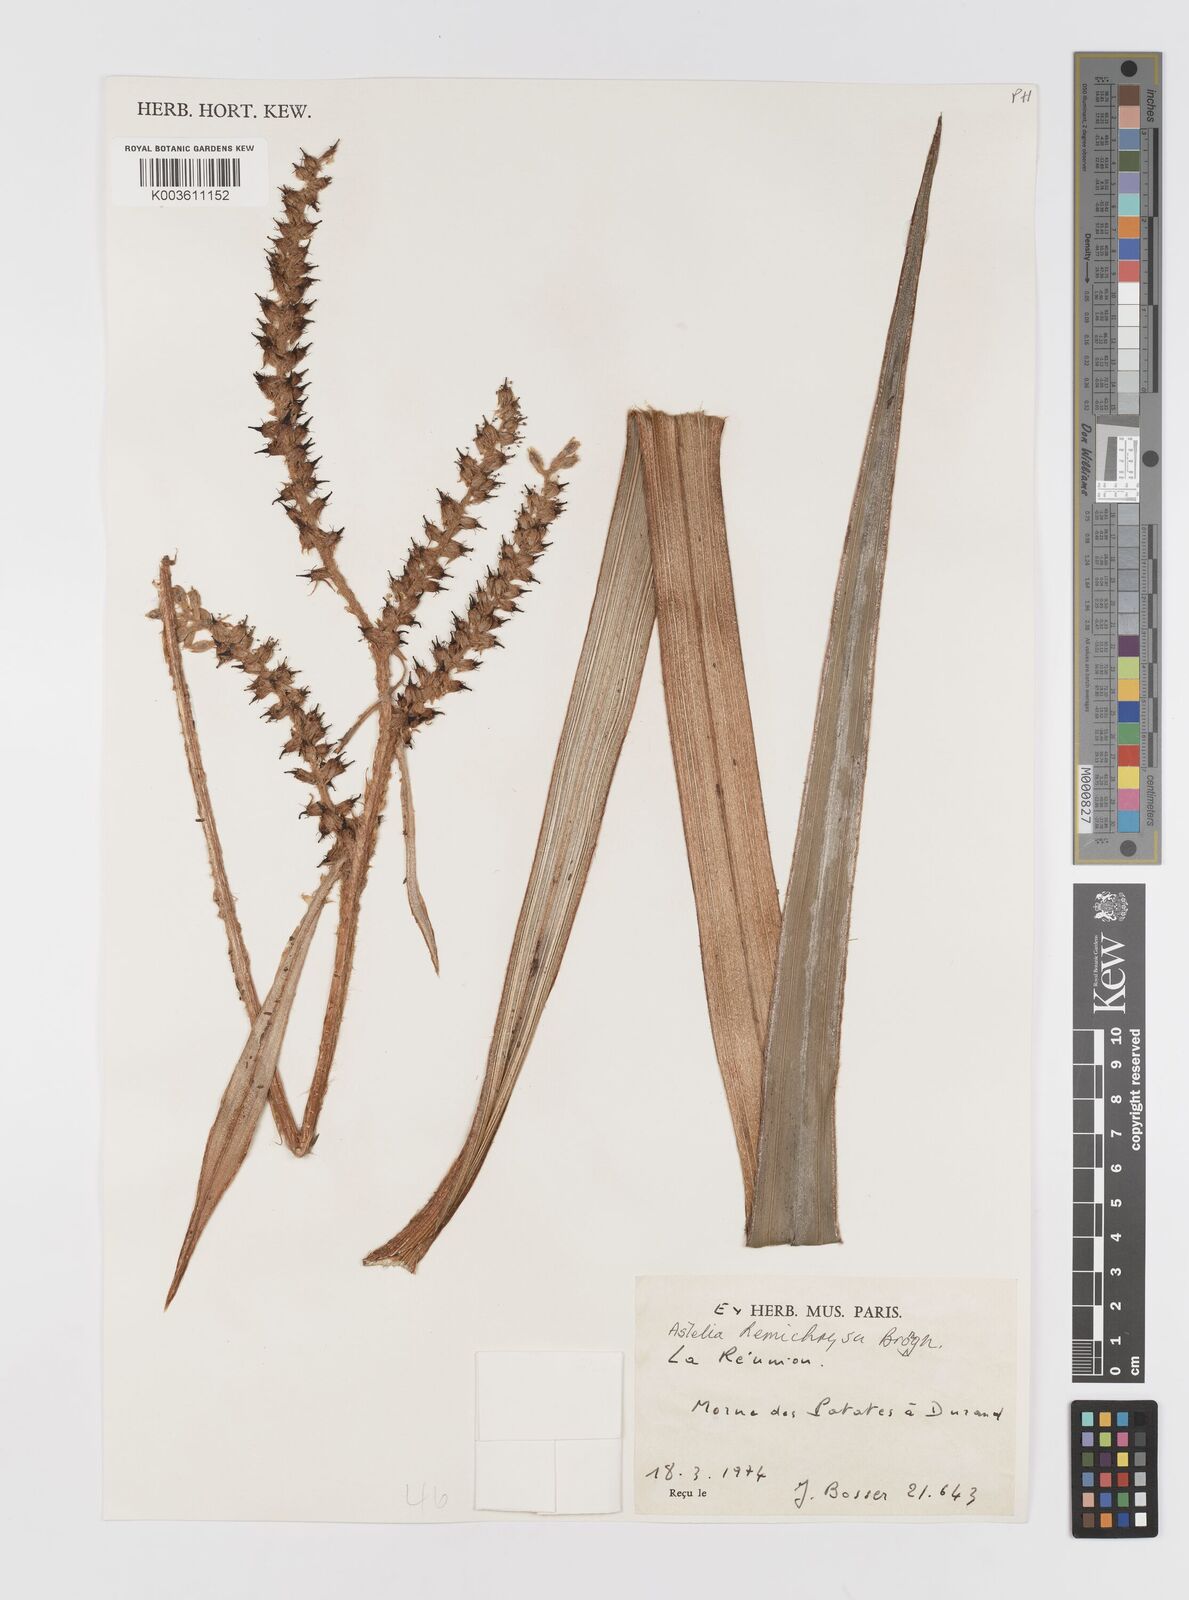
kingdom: Plantae
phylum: Tracheophyta
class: Liliopsida
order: Asparagales
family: Asteliaceae
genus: Astelia
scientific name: Astelia hemichrysa
